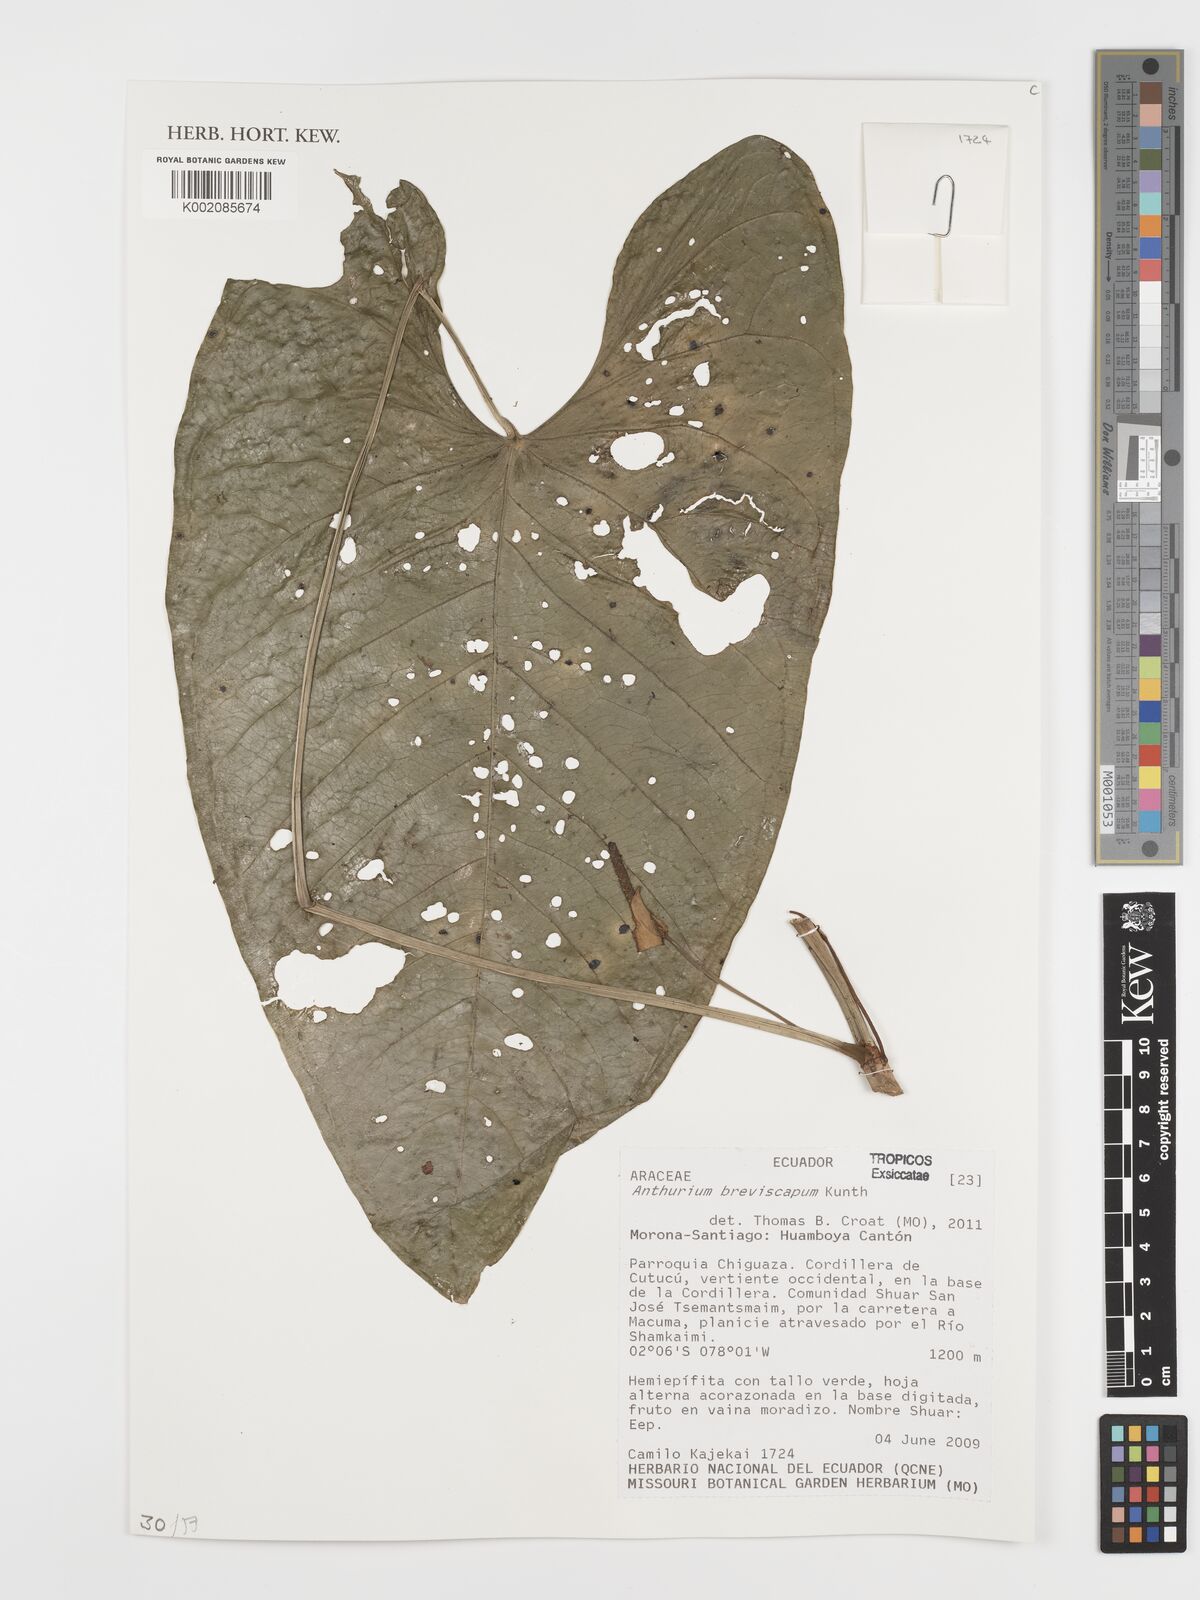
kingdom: Plantae
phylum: Tracheophyta
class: Liliopsida
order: Alismatales
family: Araceae
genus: Anthurium
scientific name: Anthurium breviscapum
